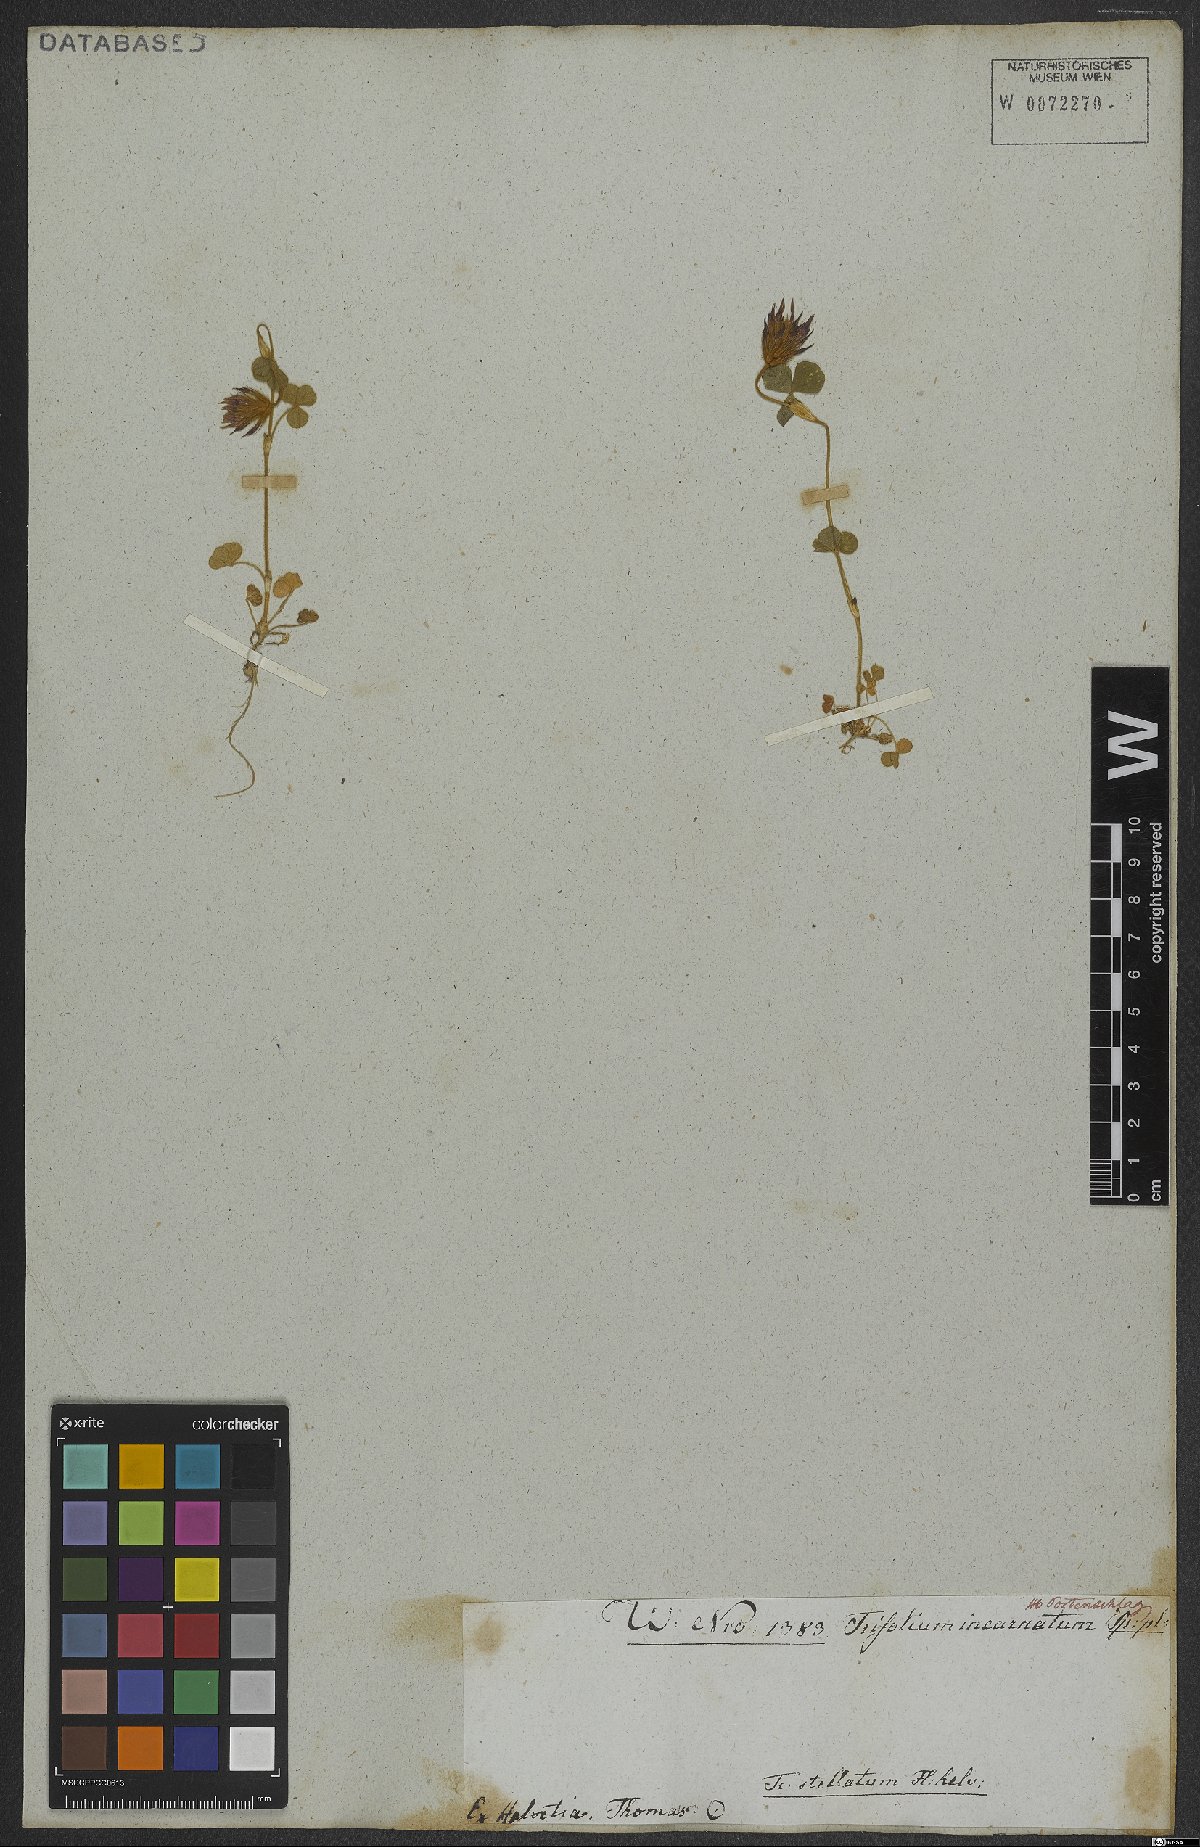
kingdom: Plantae
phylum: Tracheophyta
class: Magnoliopsida
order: Fabales
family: Fabaceae
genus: Trifolium
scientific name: Trifolium incarnatum
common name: Crimson clover
